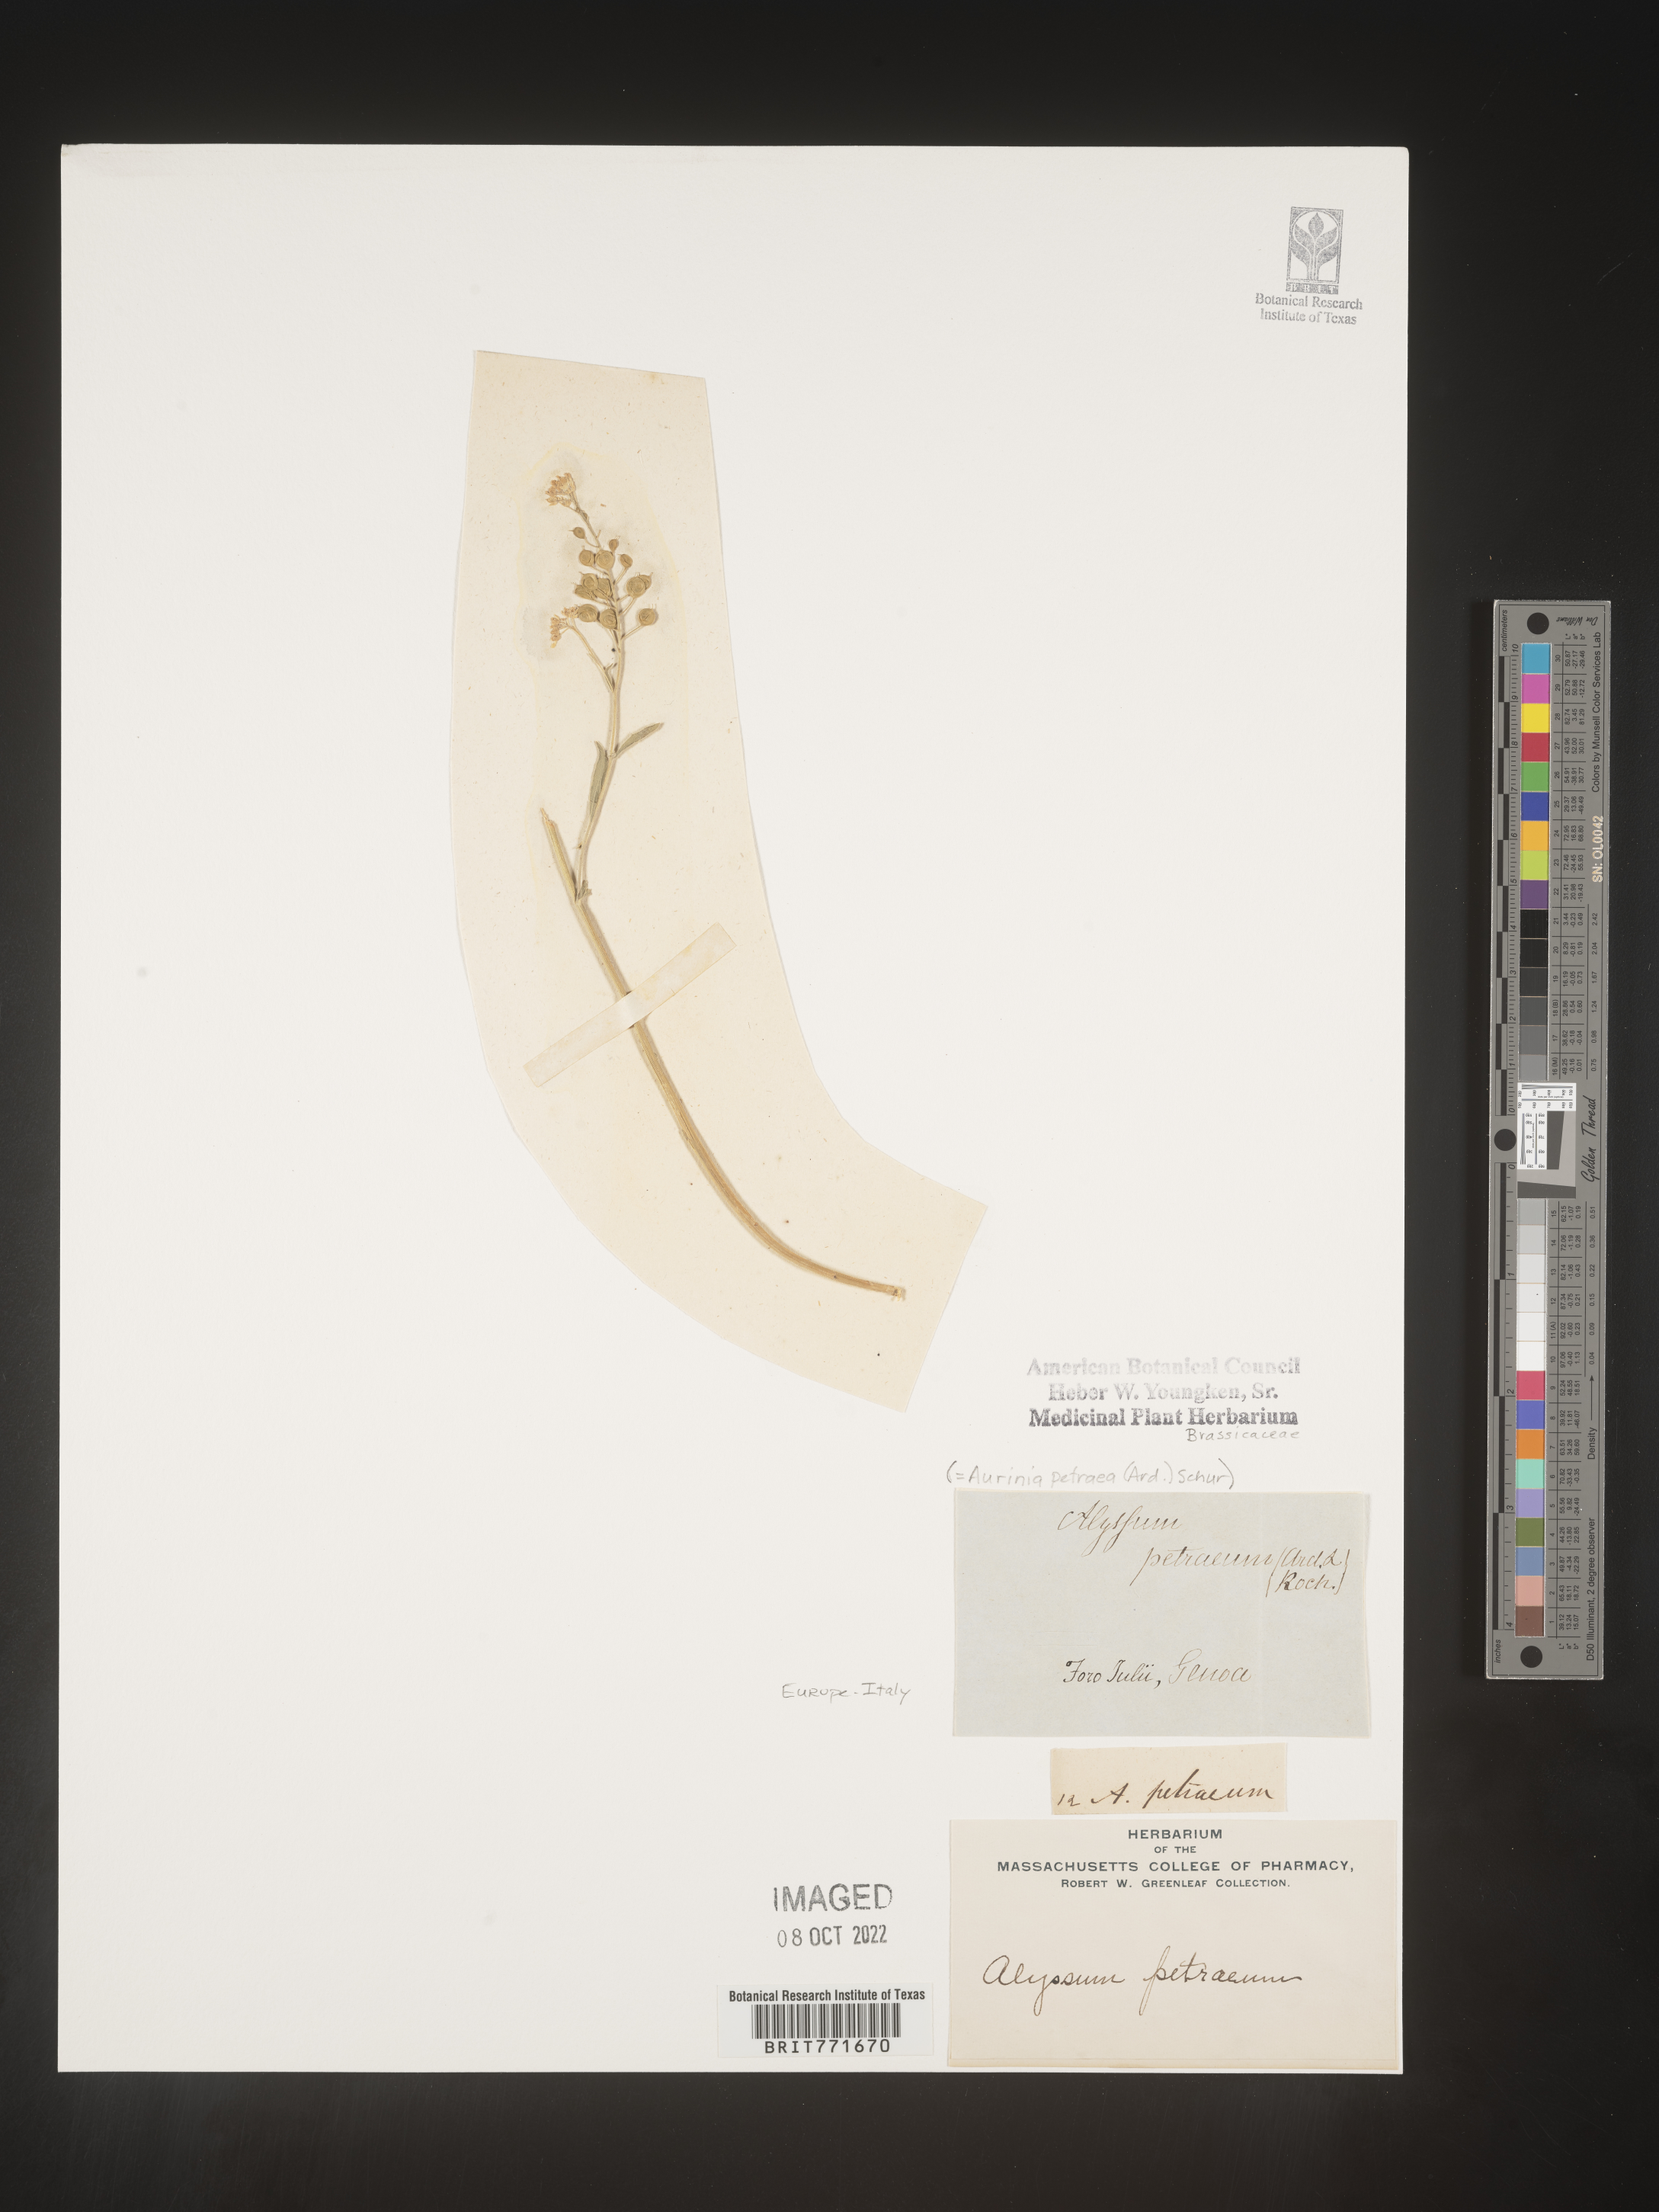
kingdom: Plantae
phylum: Tracheophyta
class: Magnoliopsida
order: Brassicales
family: Brassicaceae
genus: Aurinia
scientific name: Aurinia
